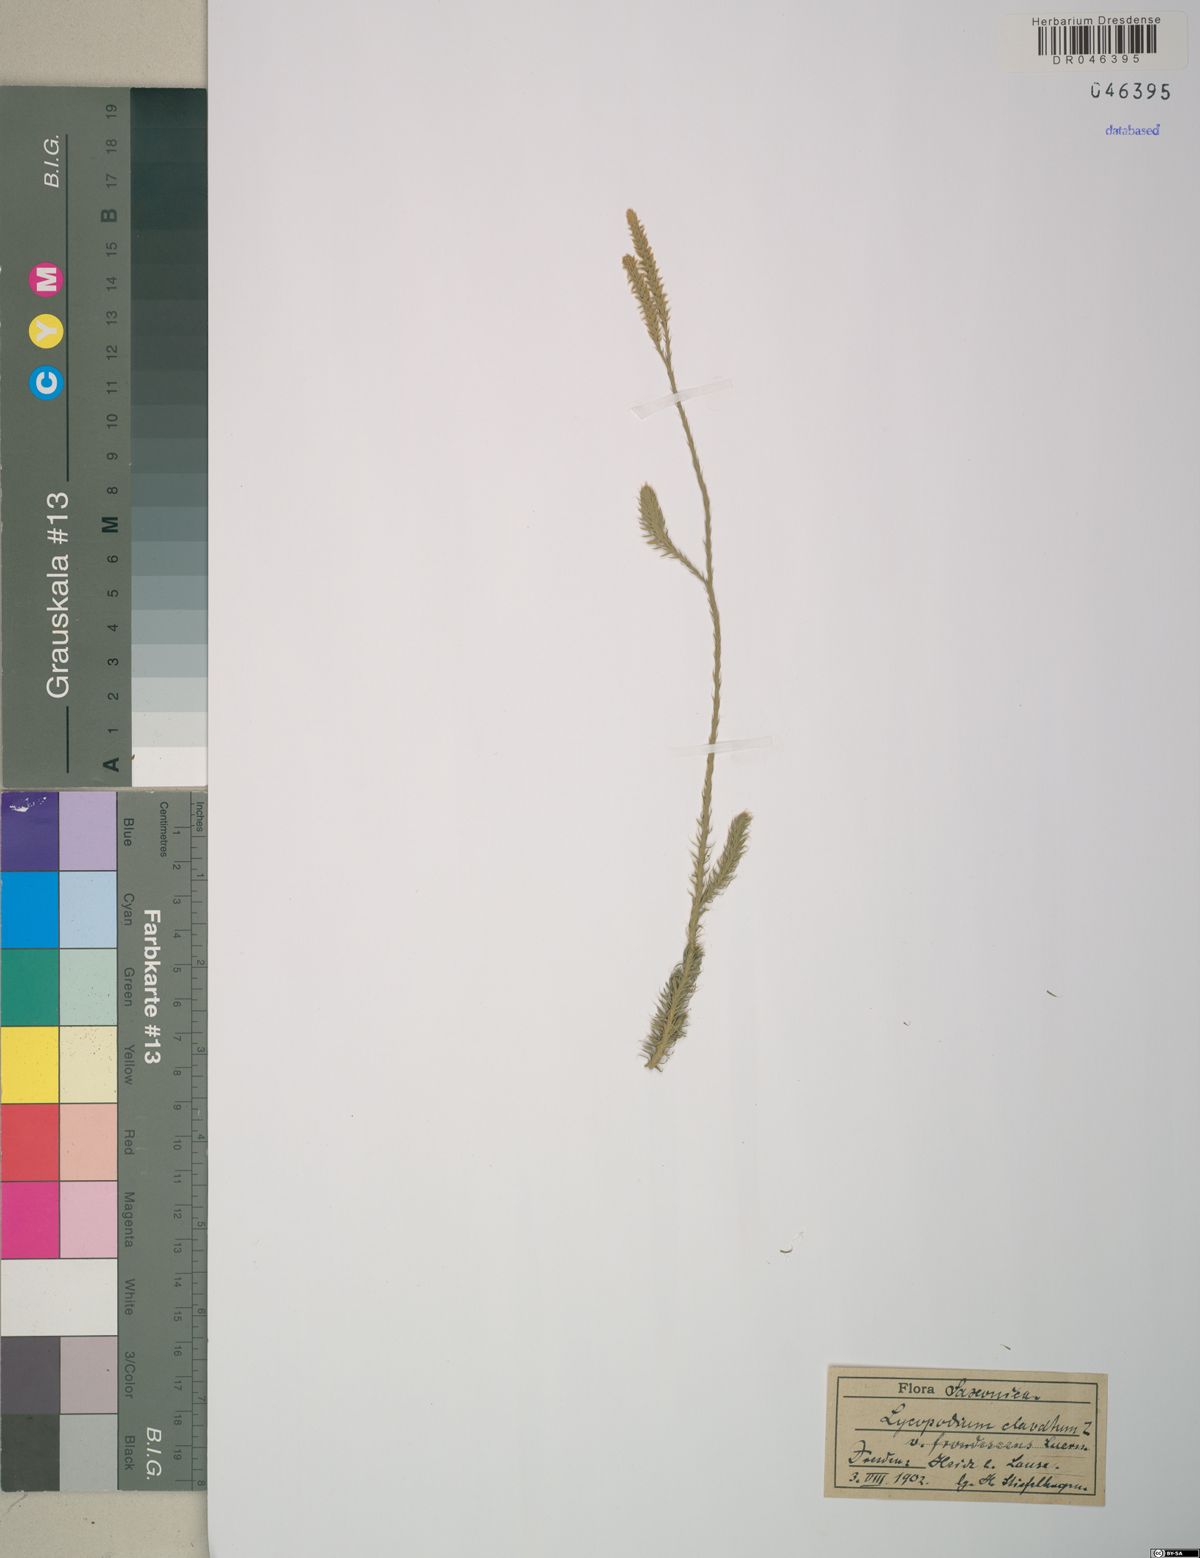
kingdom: Plantae
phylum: Tracheophyta
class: Lycopodiopsida
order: Lycopodiales
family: Lycopodiaceae
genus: Lycopodium
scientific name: Lycopodium clavatum
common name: Stag's-horn clubmoss
